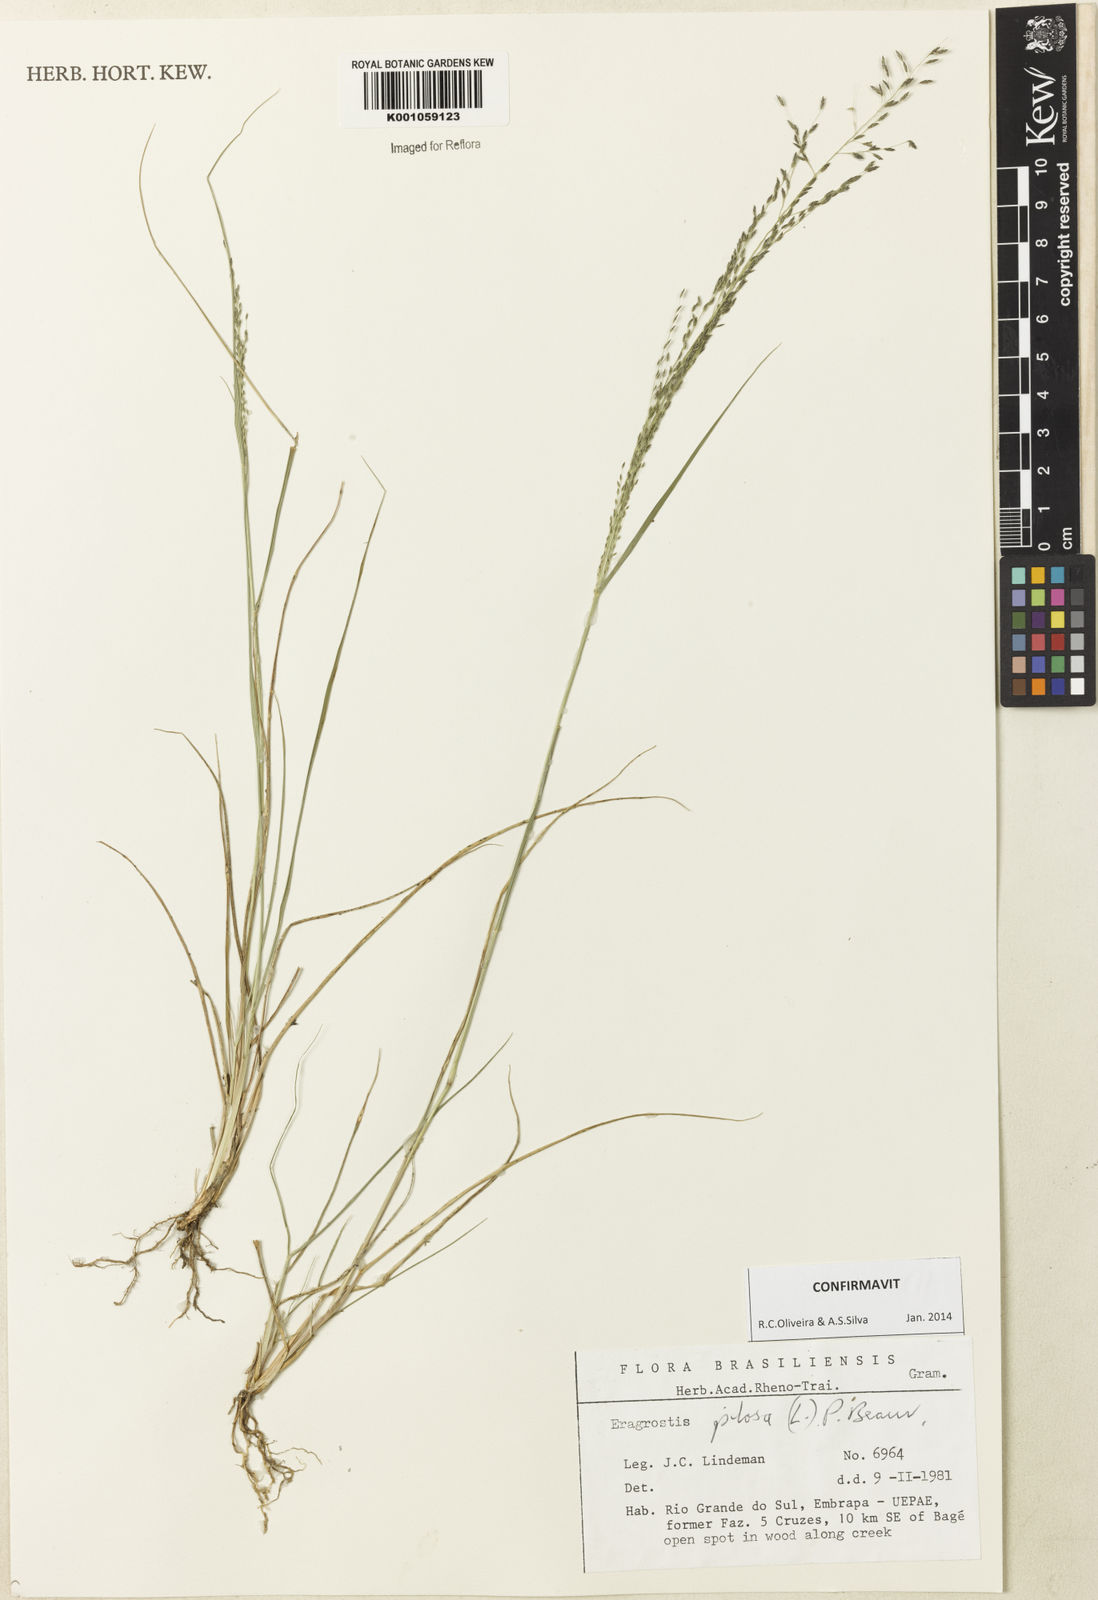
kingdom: Plantae
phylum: Tracheophyta
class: Liliopsida
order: Poales
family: Poaceae
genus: Eragrostis
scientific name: Eragrostis pilosa
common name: Indian lovegrass
